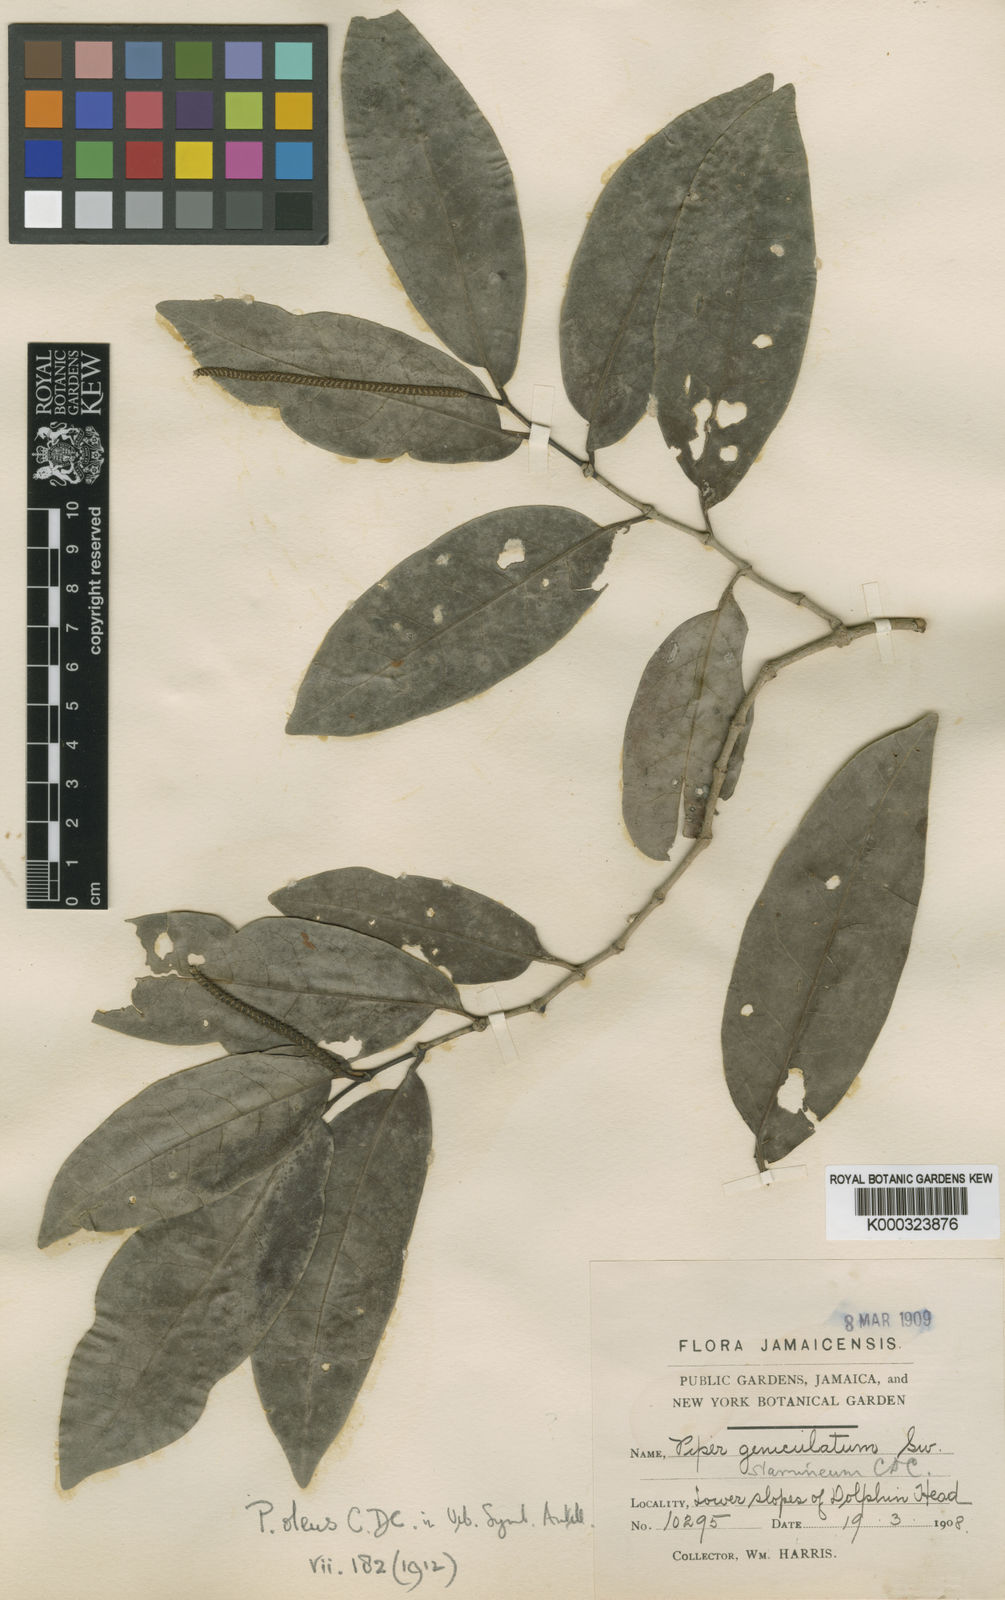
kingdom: Plantae
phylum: Tracheophyta
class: Magnoliopsida
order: Piperales
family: Piperaceae
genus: Piper
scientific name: Piper arboreum
